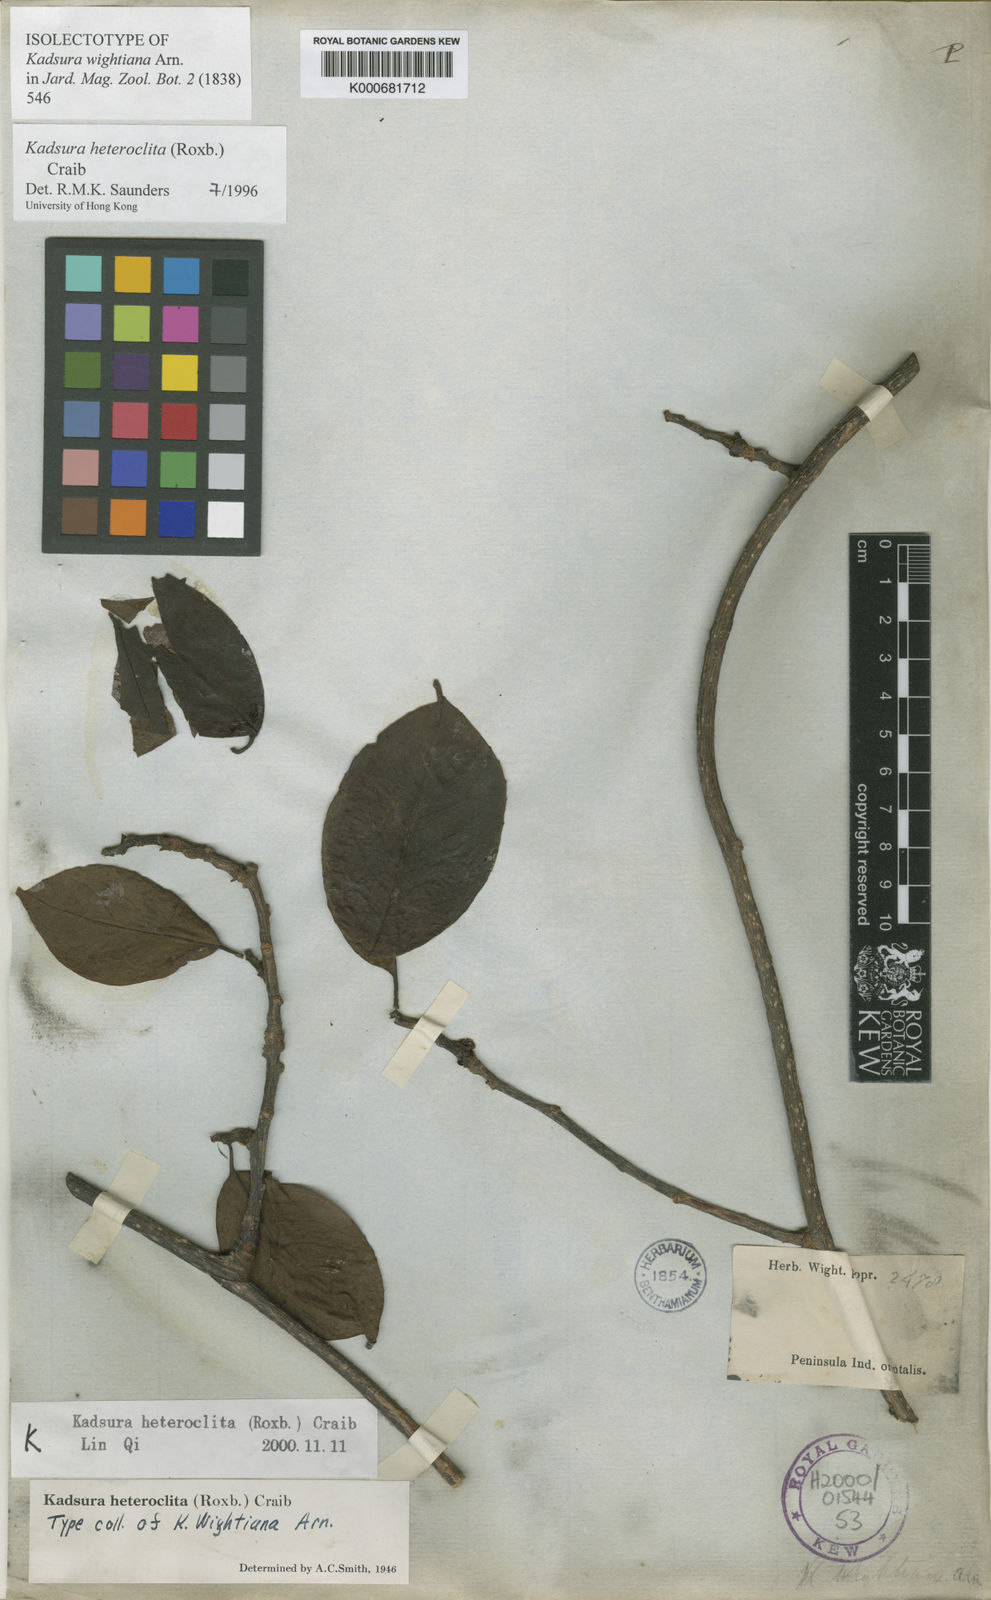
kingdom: Plantae
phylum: Tracheophyta
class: Magnoliopsida
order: Austrobaileyales
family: Schisandraceae
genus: Kadsura
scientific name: Kadsura heteroclita
